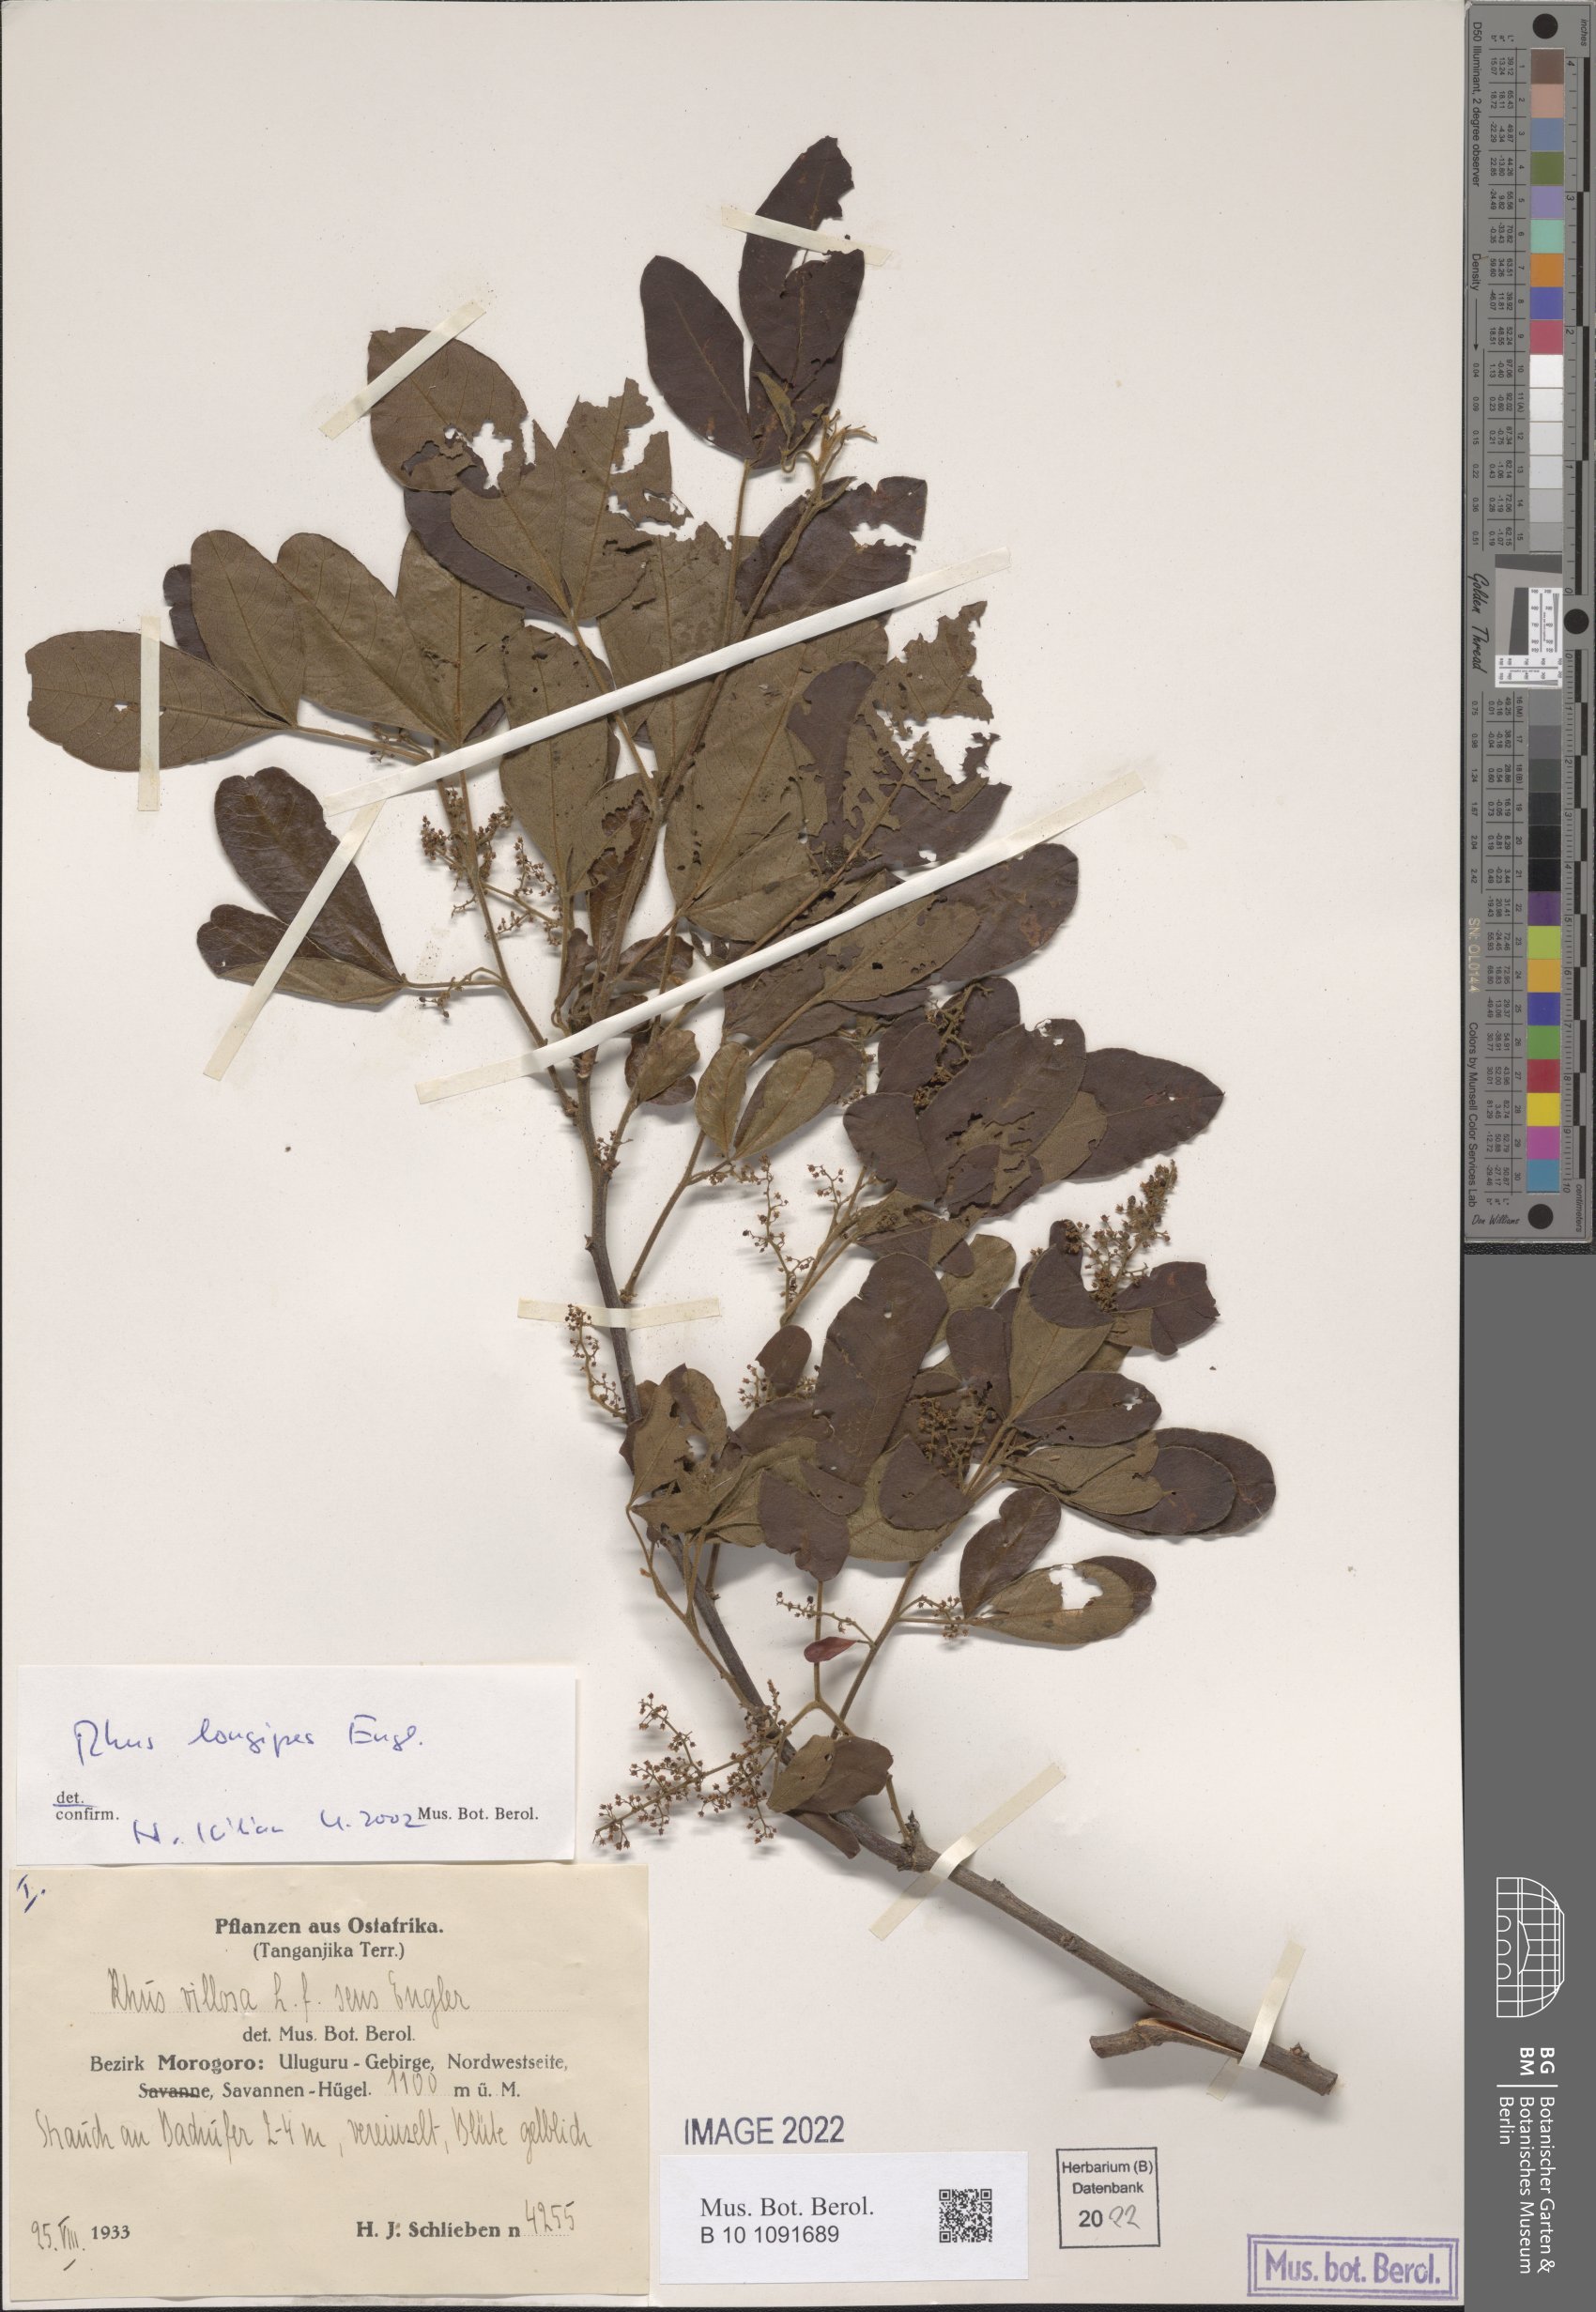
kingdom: Plantae
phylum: Tracheophyta
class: Magnoliopsida
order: Sapindales
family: Anacardiaceae
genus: Searsia
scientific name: Searsia longipes
